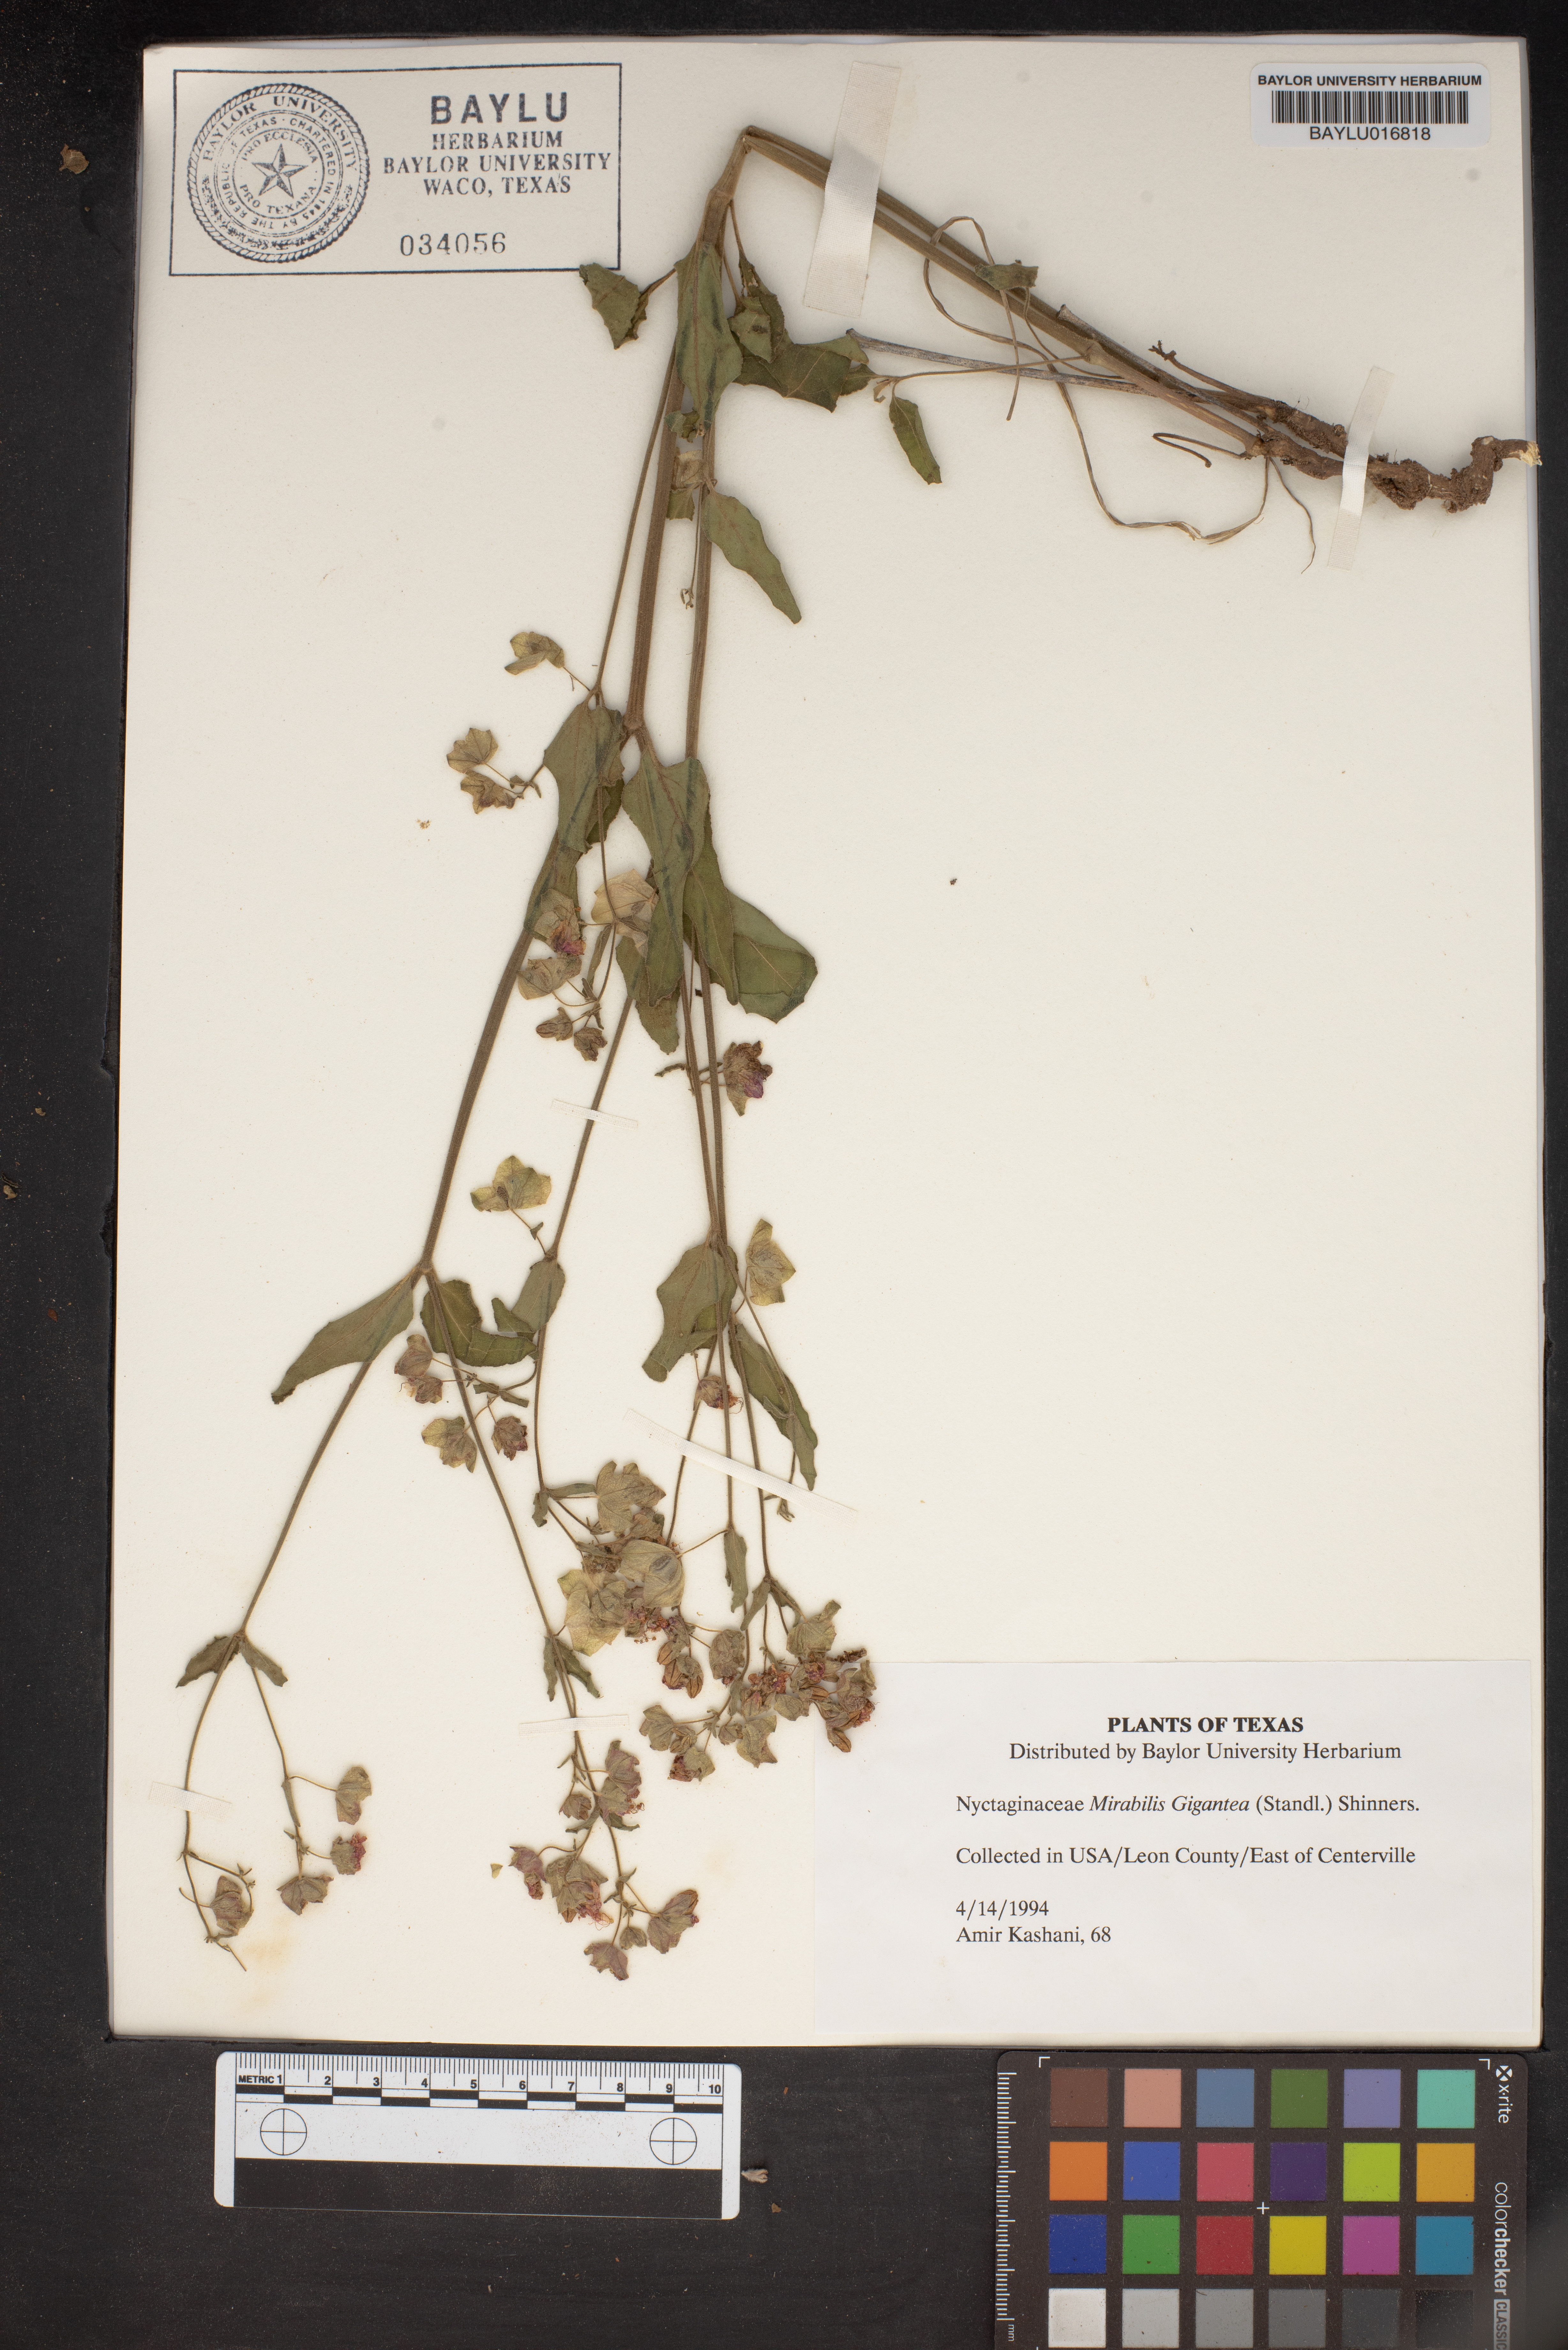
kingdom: Plantae
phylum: Tracheophyta
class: Magnoliopsida
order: Caryophyllales
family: Nyctaginaceae
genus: Mirabilis
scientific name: Mirabilis gigantea
